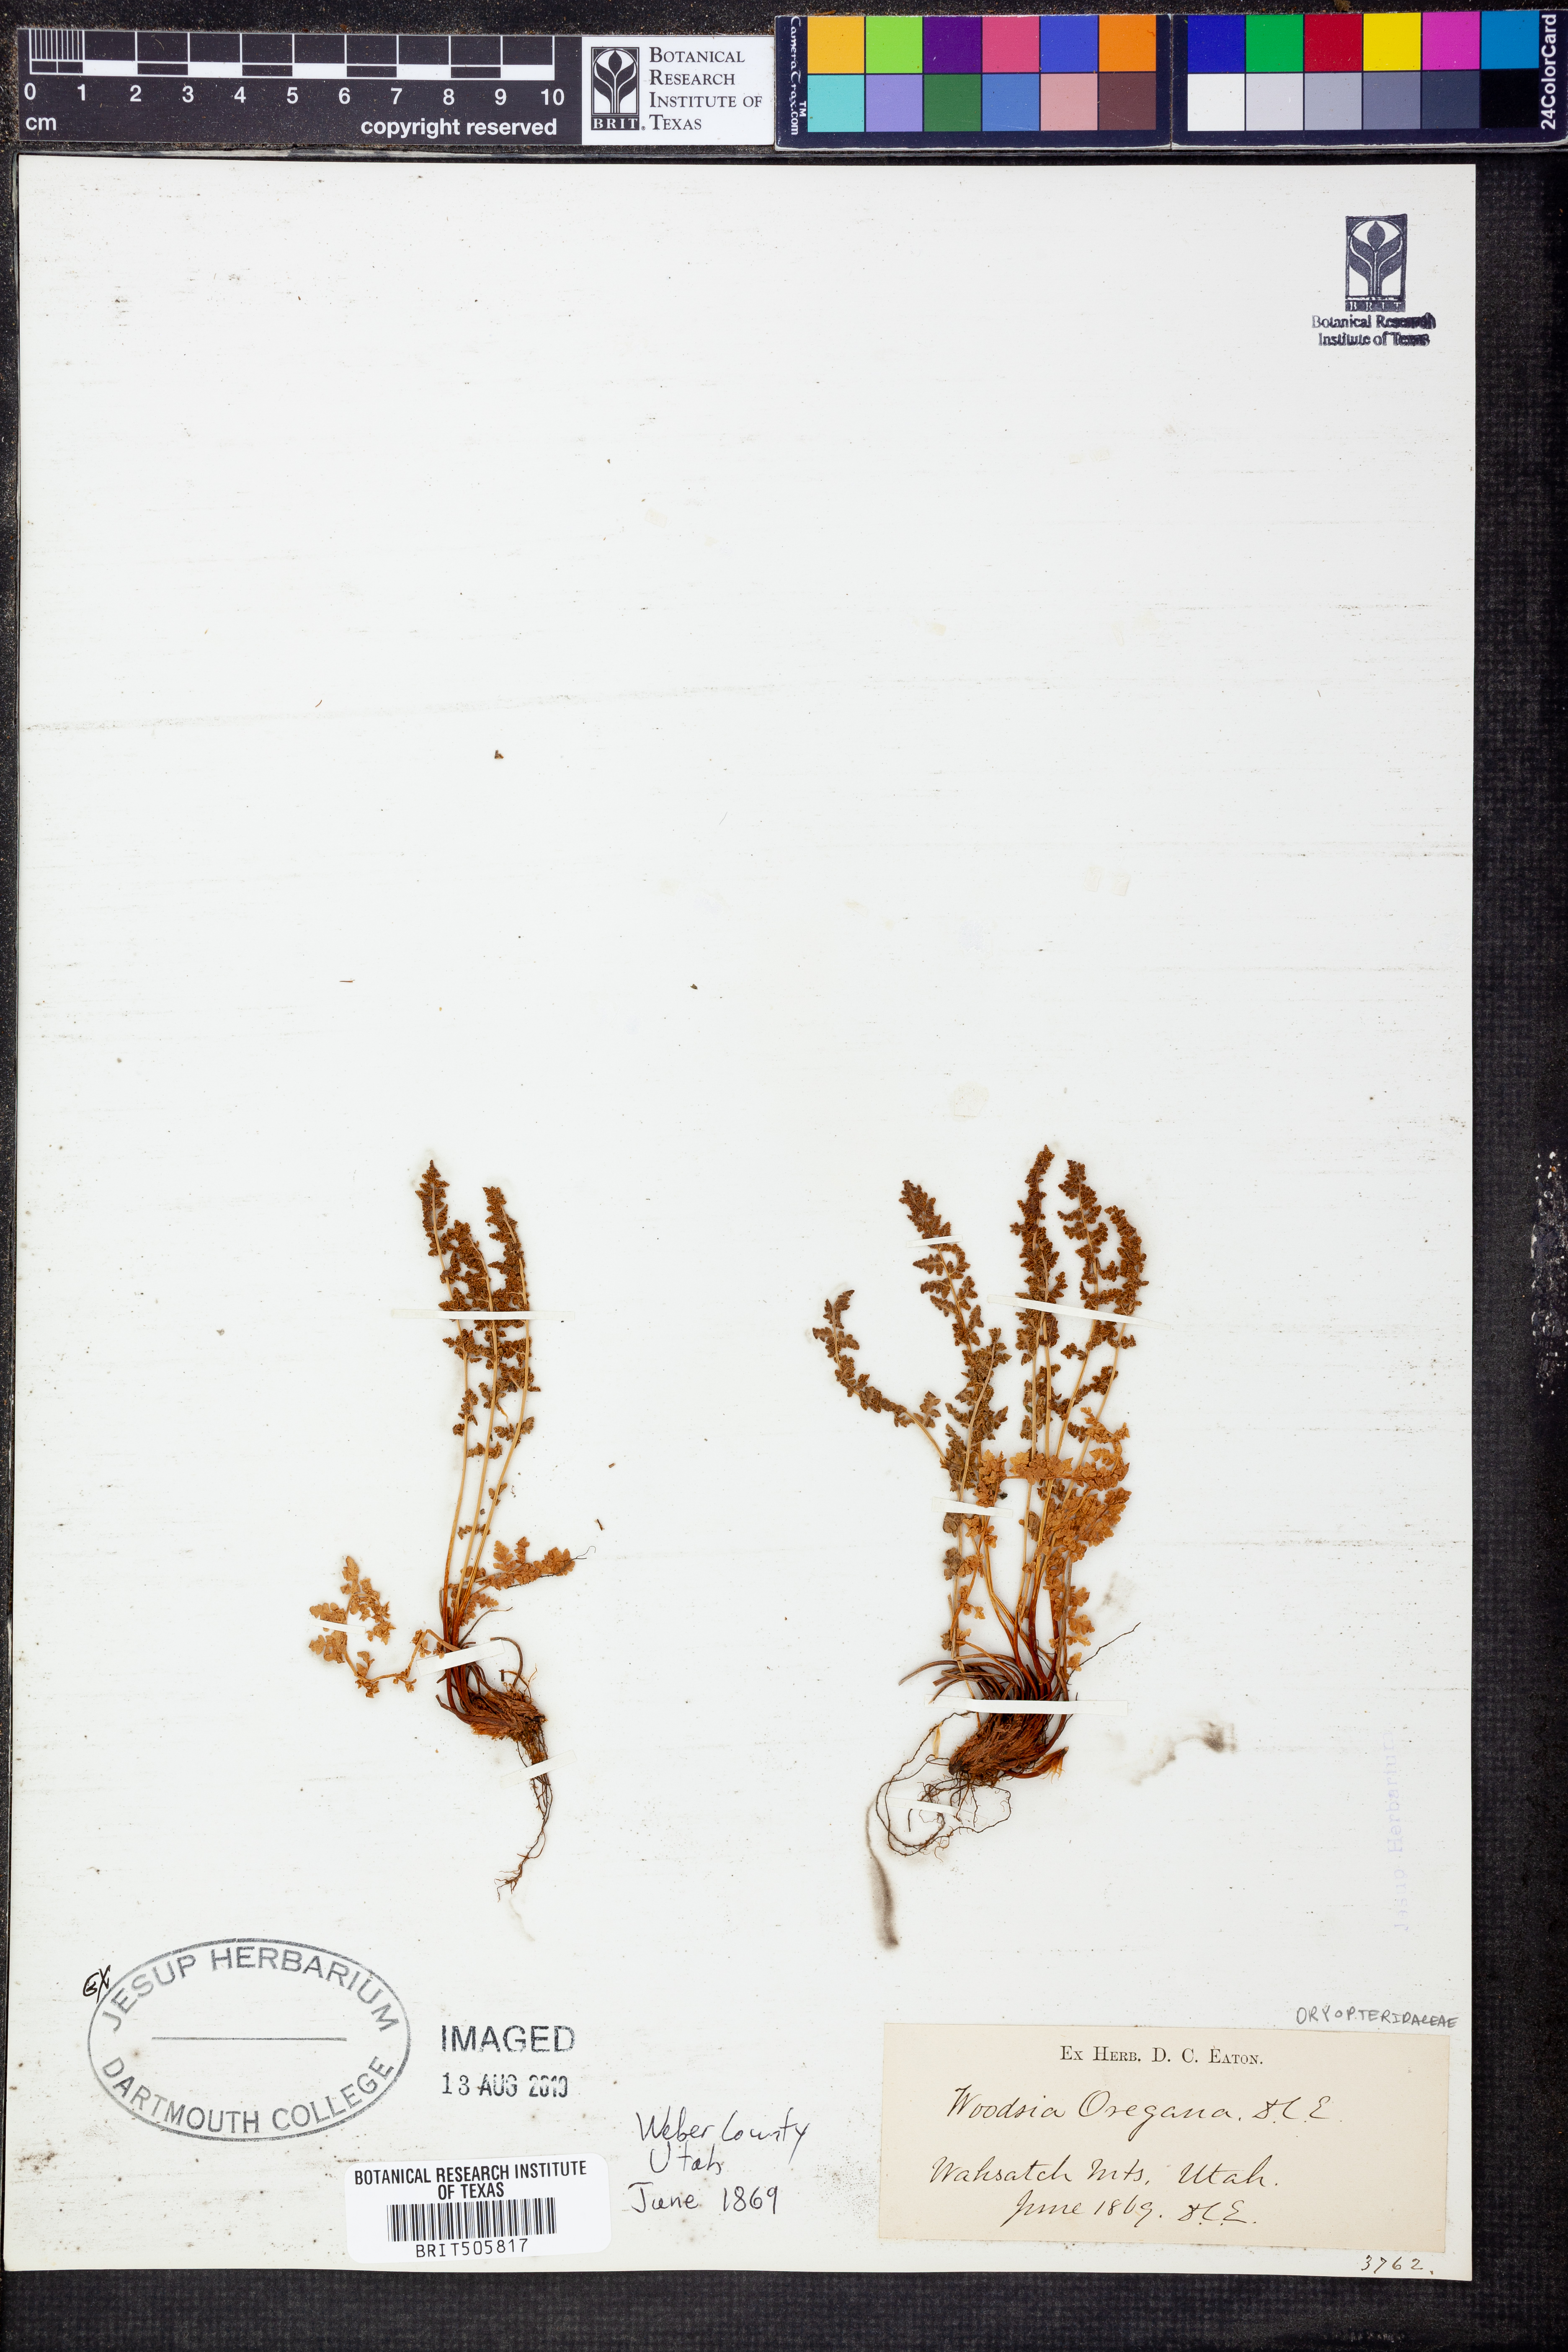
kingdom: Plantae
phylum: Tracheophyta
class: Polypodiopsida
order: Polypodiales
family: Woodsiaceae
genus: Physematium
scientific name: Physematium oreganum
